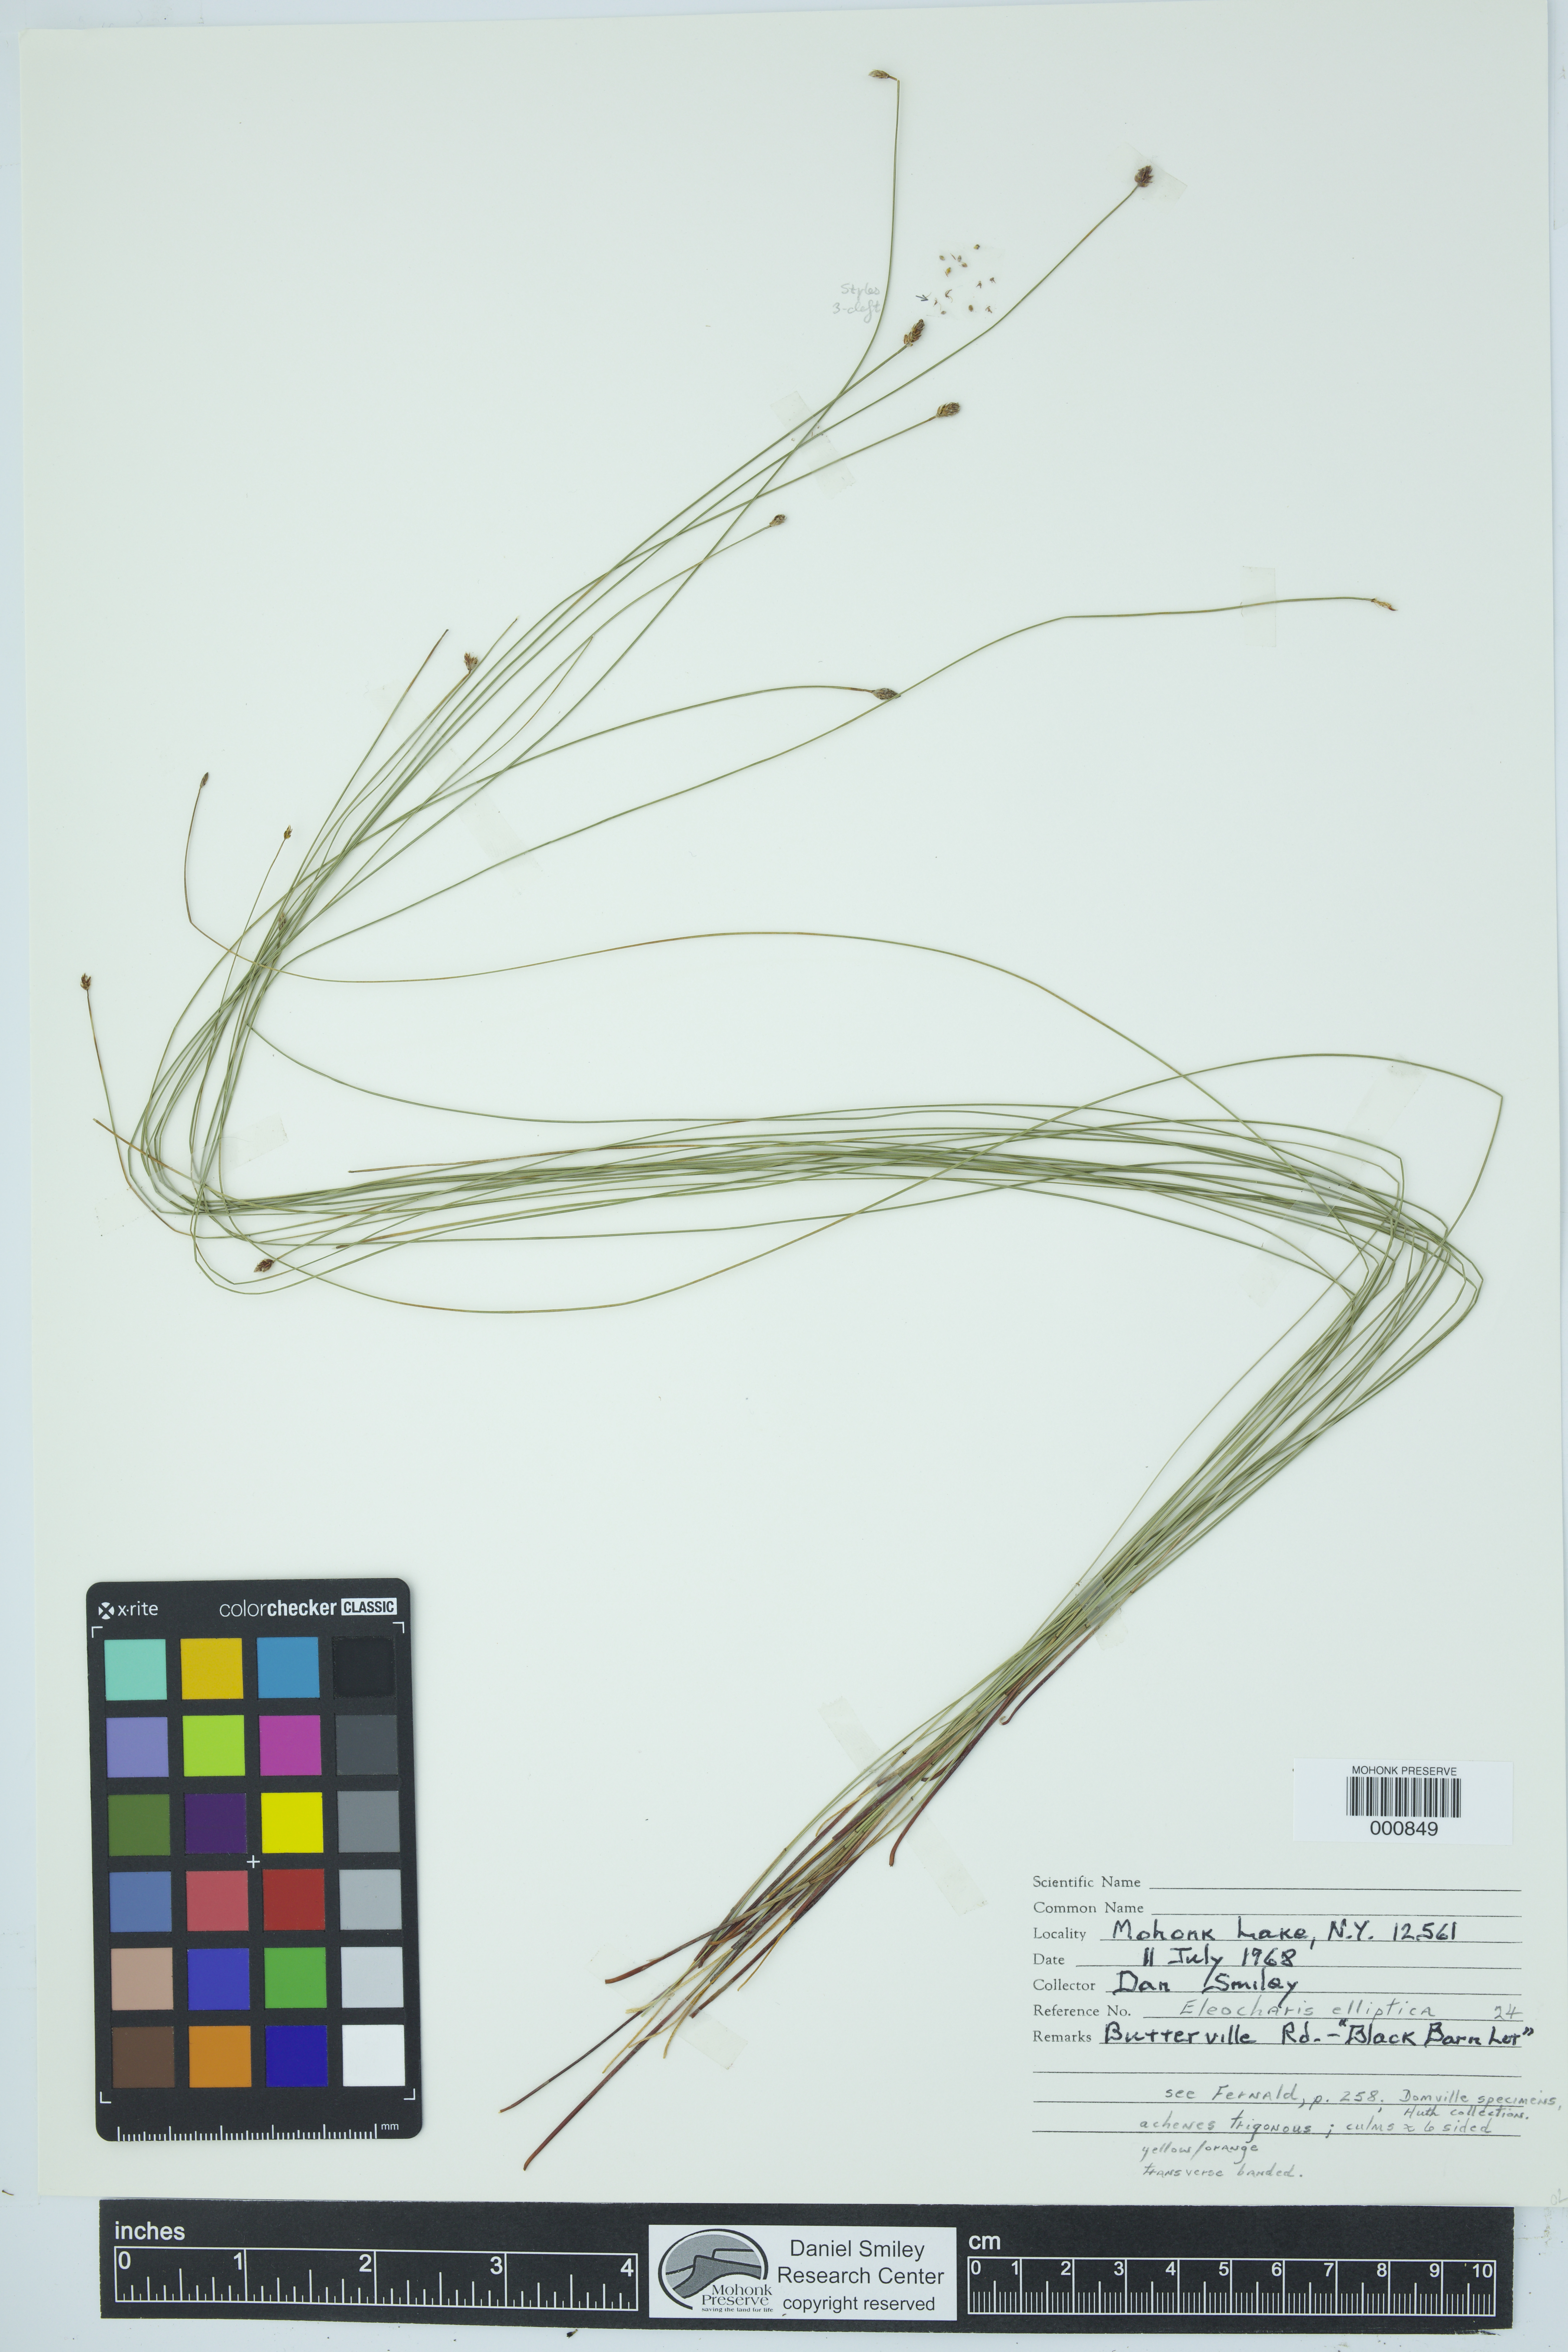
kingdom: Plantae
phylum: Tracheophyta
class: Liliopsida
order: Poales
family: Cyperaceae
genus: Eleocharis
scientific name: Eleocharis elliptica
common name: Capitate spikerush
